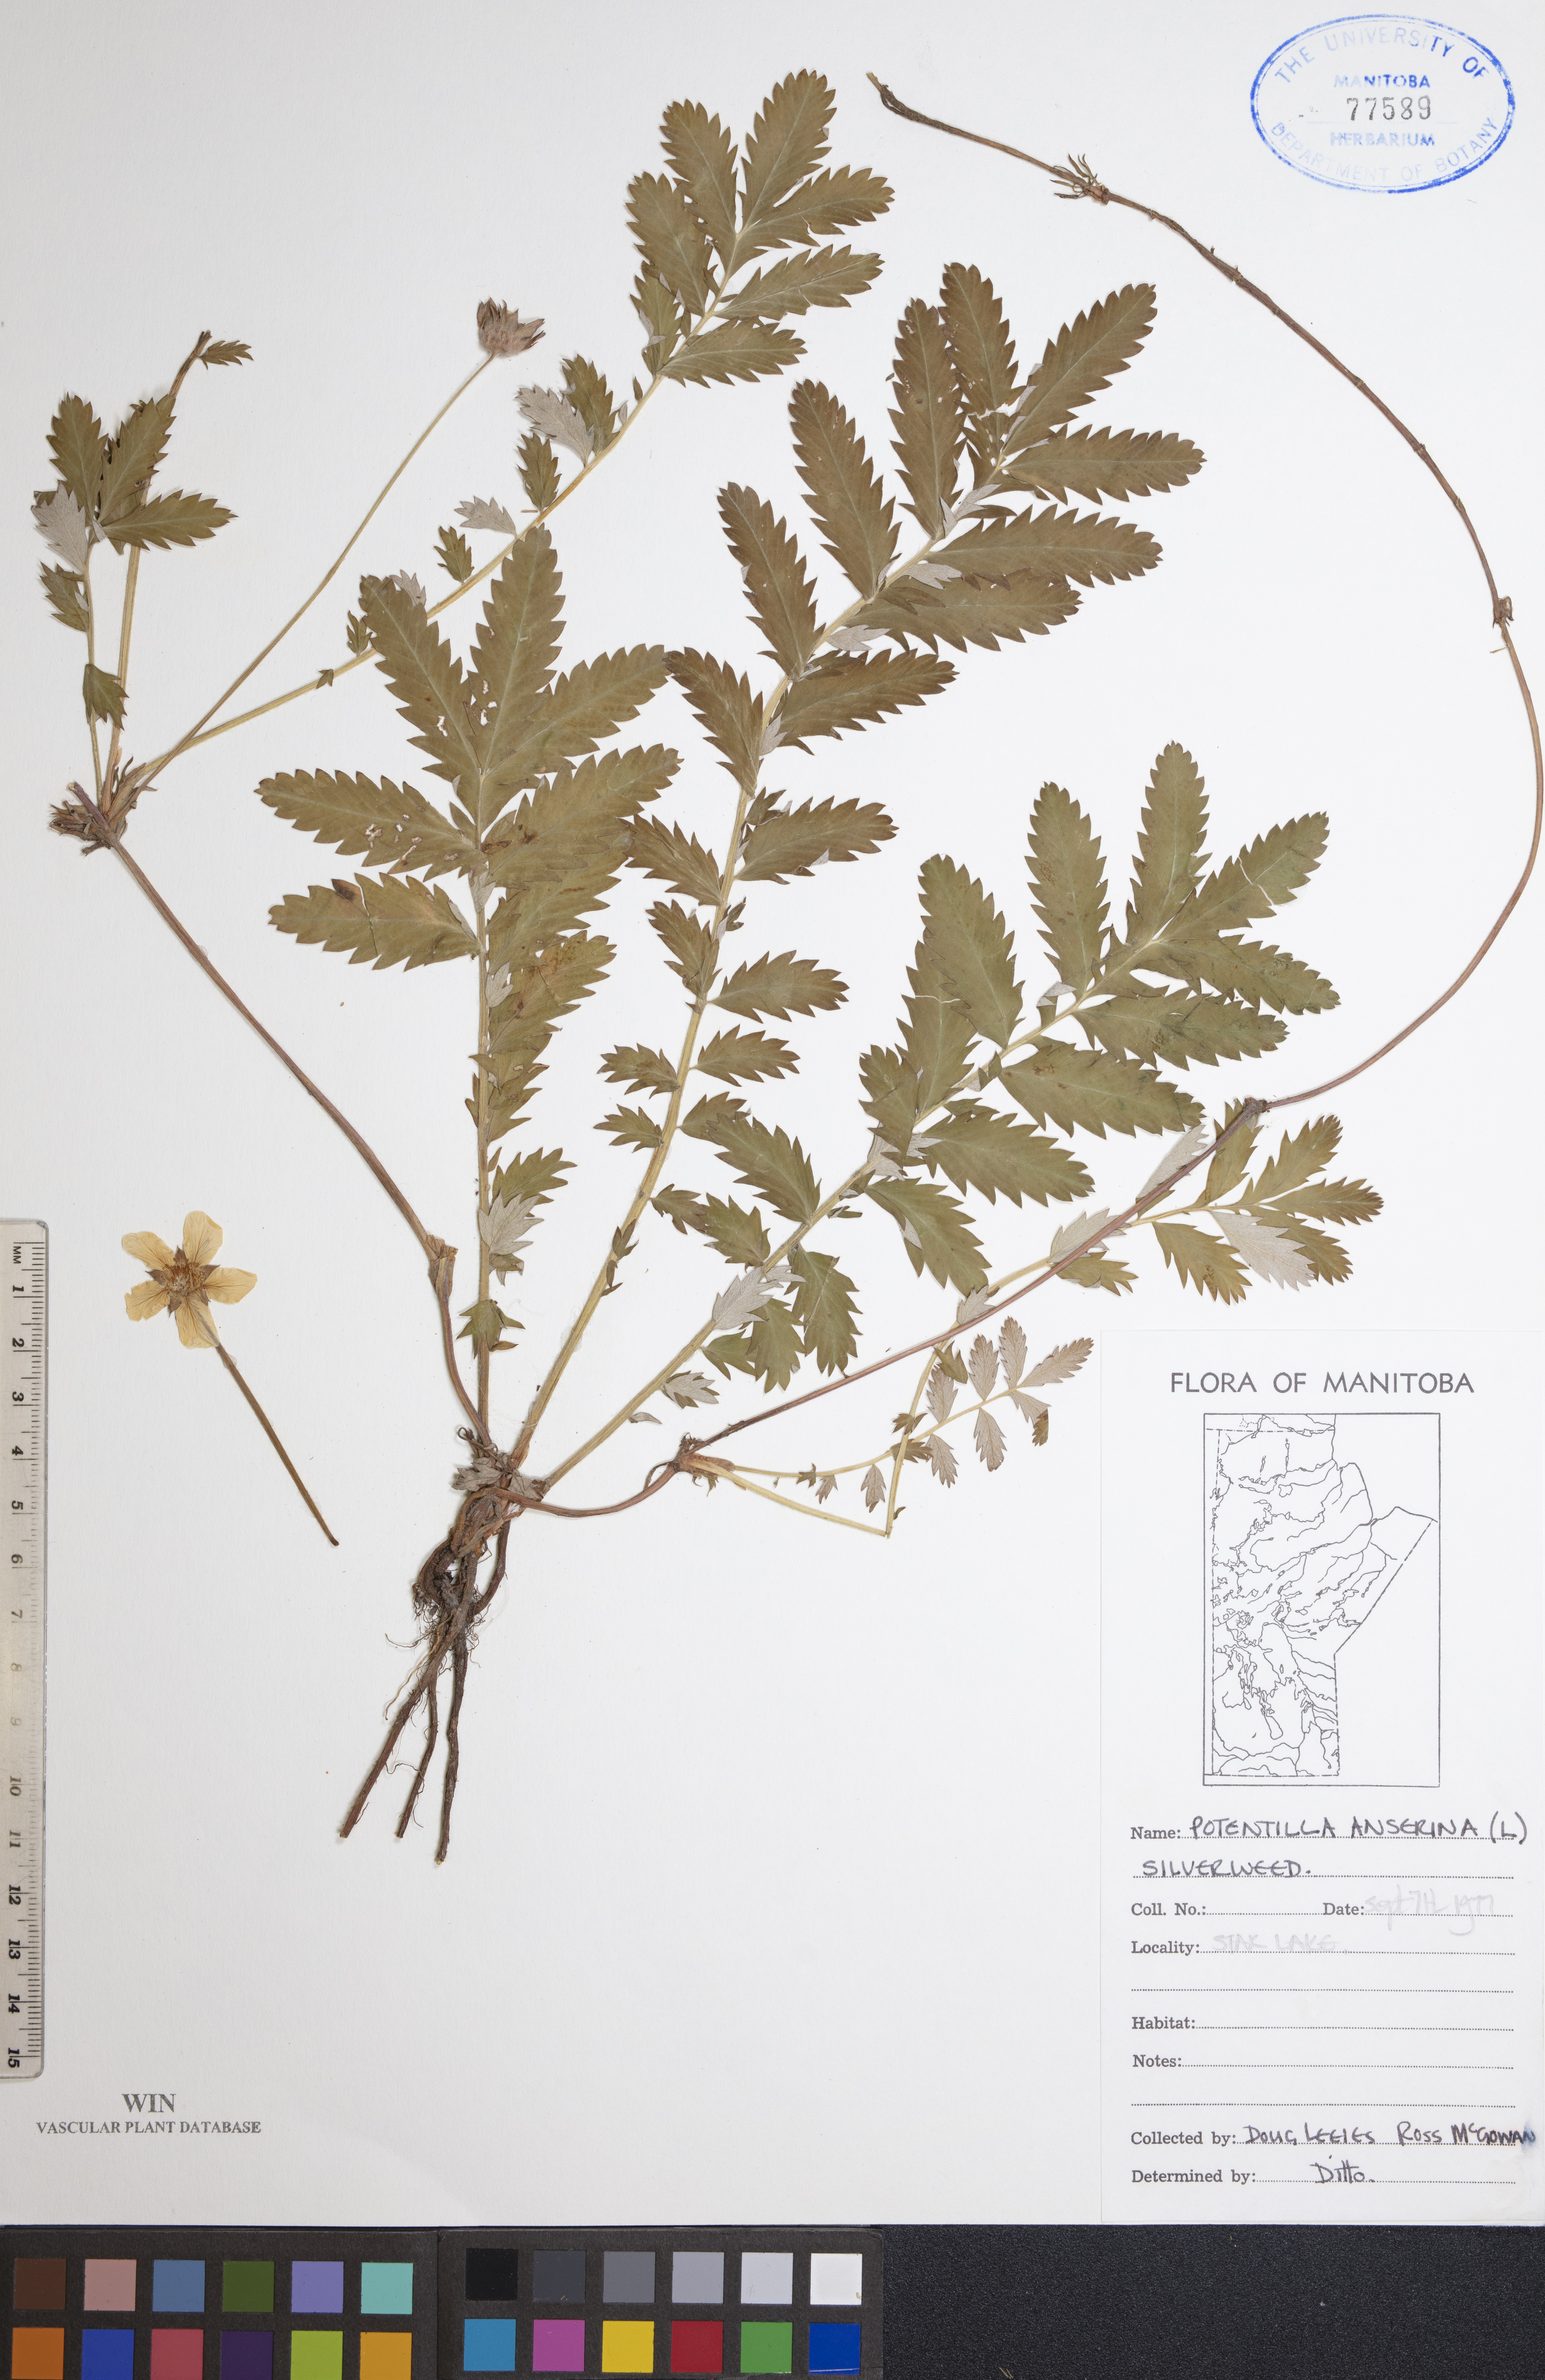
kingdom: Plantae
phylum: Tracheophyta
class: Magnoliopsida
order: Rosales
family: Rosaceae
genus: Argentina
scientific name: Argentina anserina
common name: Common silverweed
